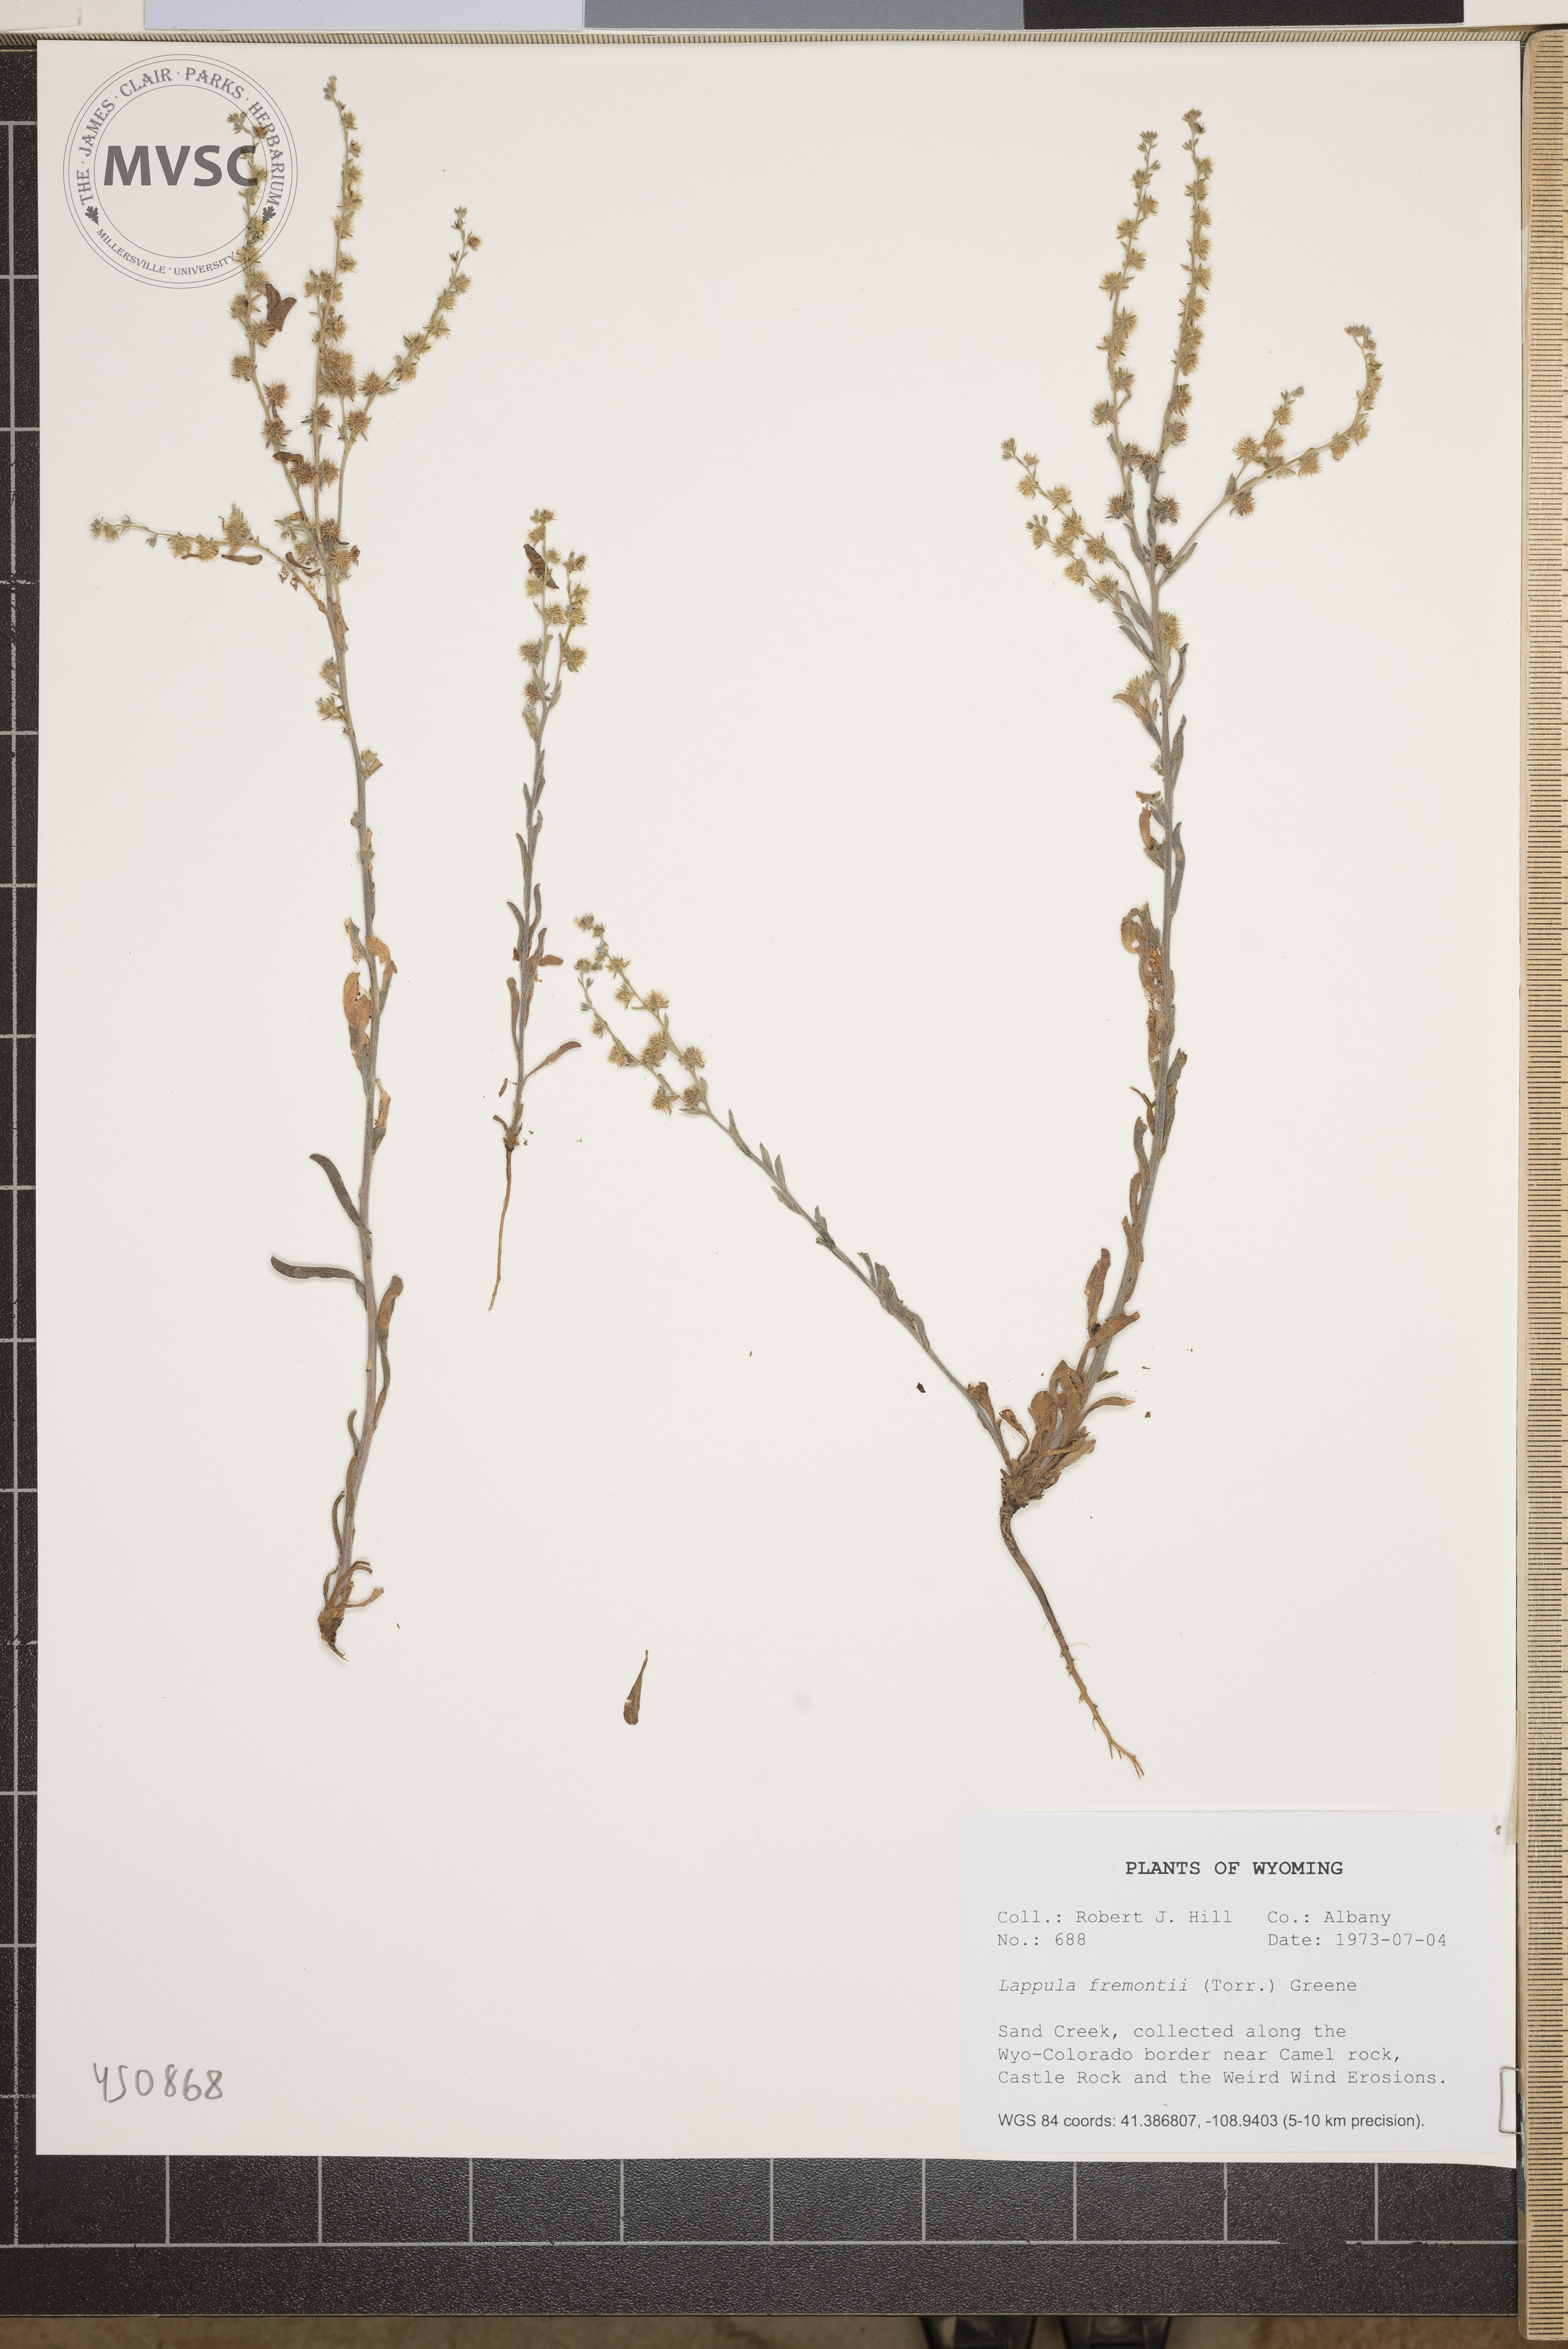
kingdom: Plantae
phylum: Tracheophyta
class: Magnoliopsida
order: Boraginales
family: Boraginaceae
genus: Lappula
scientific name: Lappula squarrosa
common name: European stickseed
